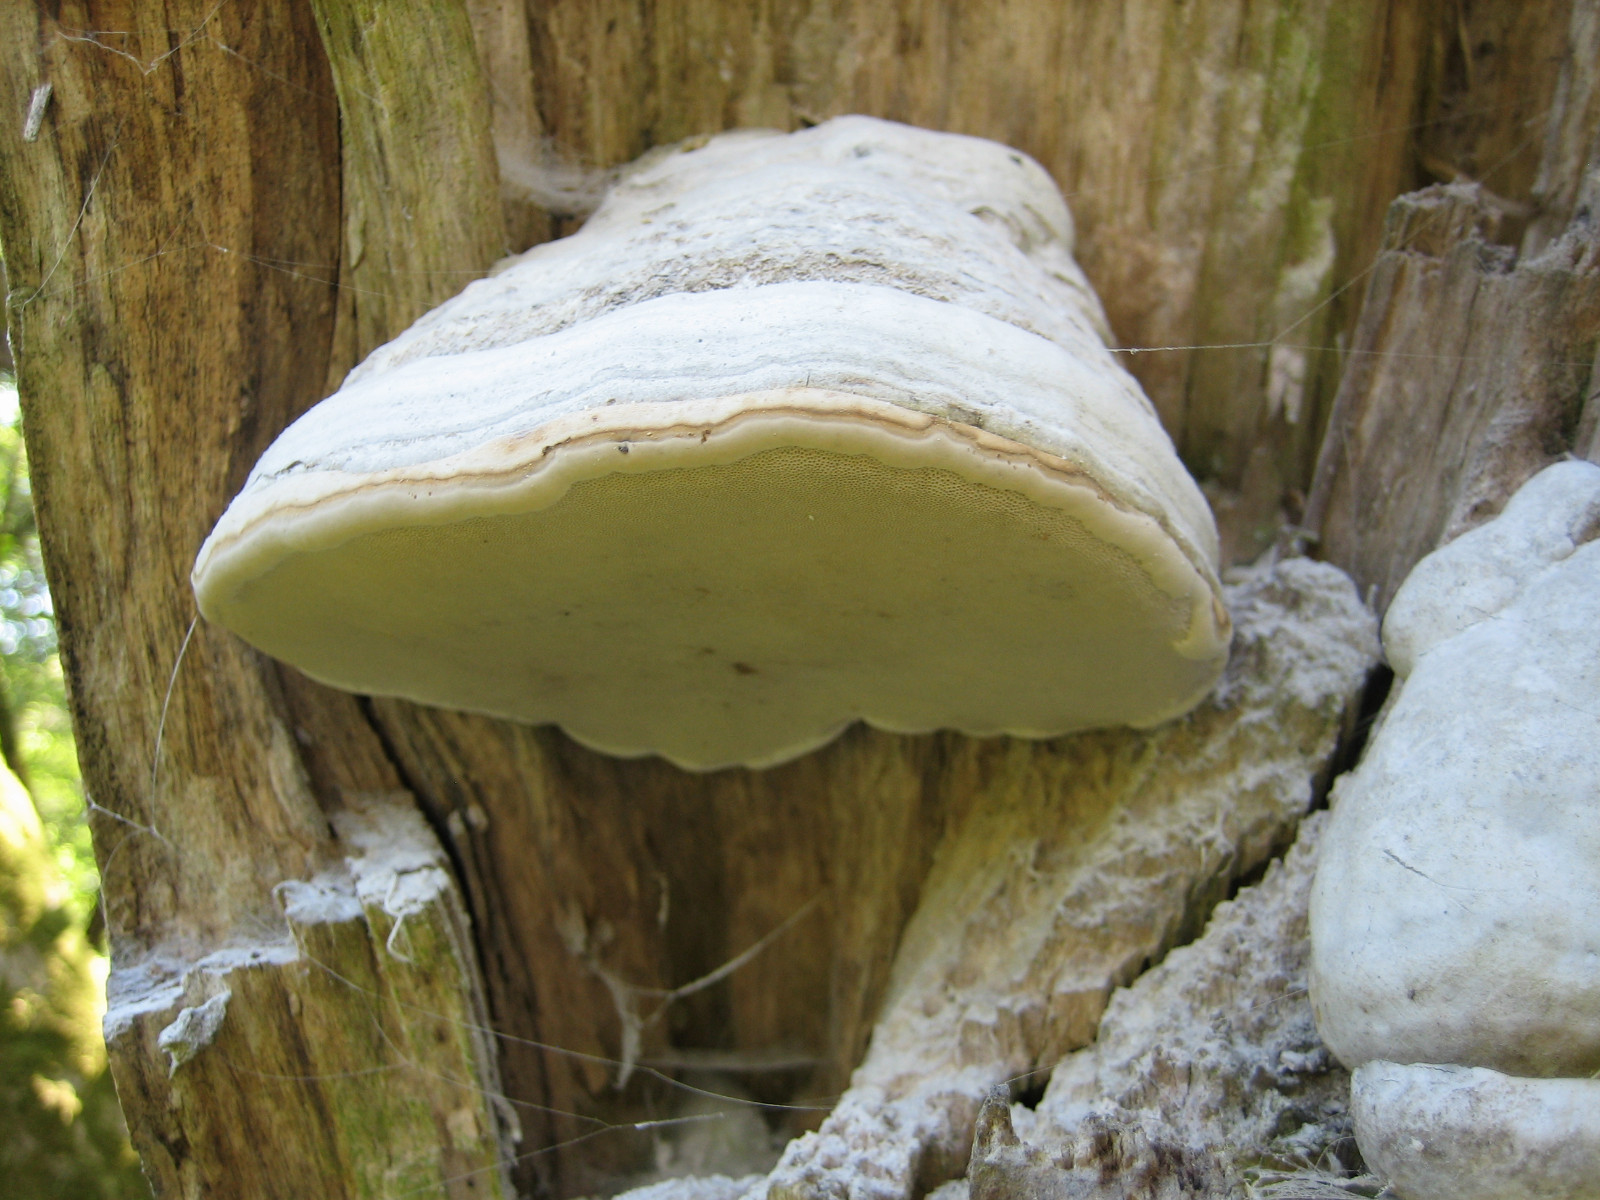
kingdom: Fungi
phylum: Basidiomycota
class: Agaricomycetes
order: Polyporales
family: Polyporaceae
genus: Fomes
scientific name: Fomes fomentarius
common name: tøndersvamp
